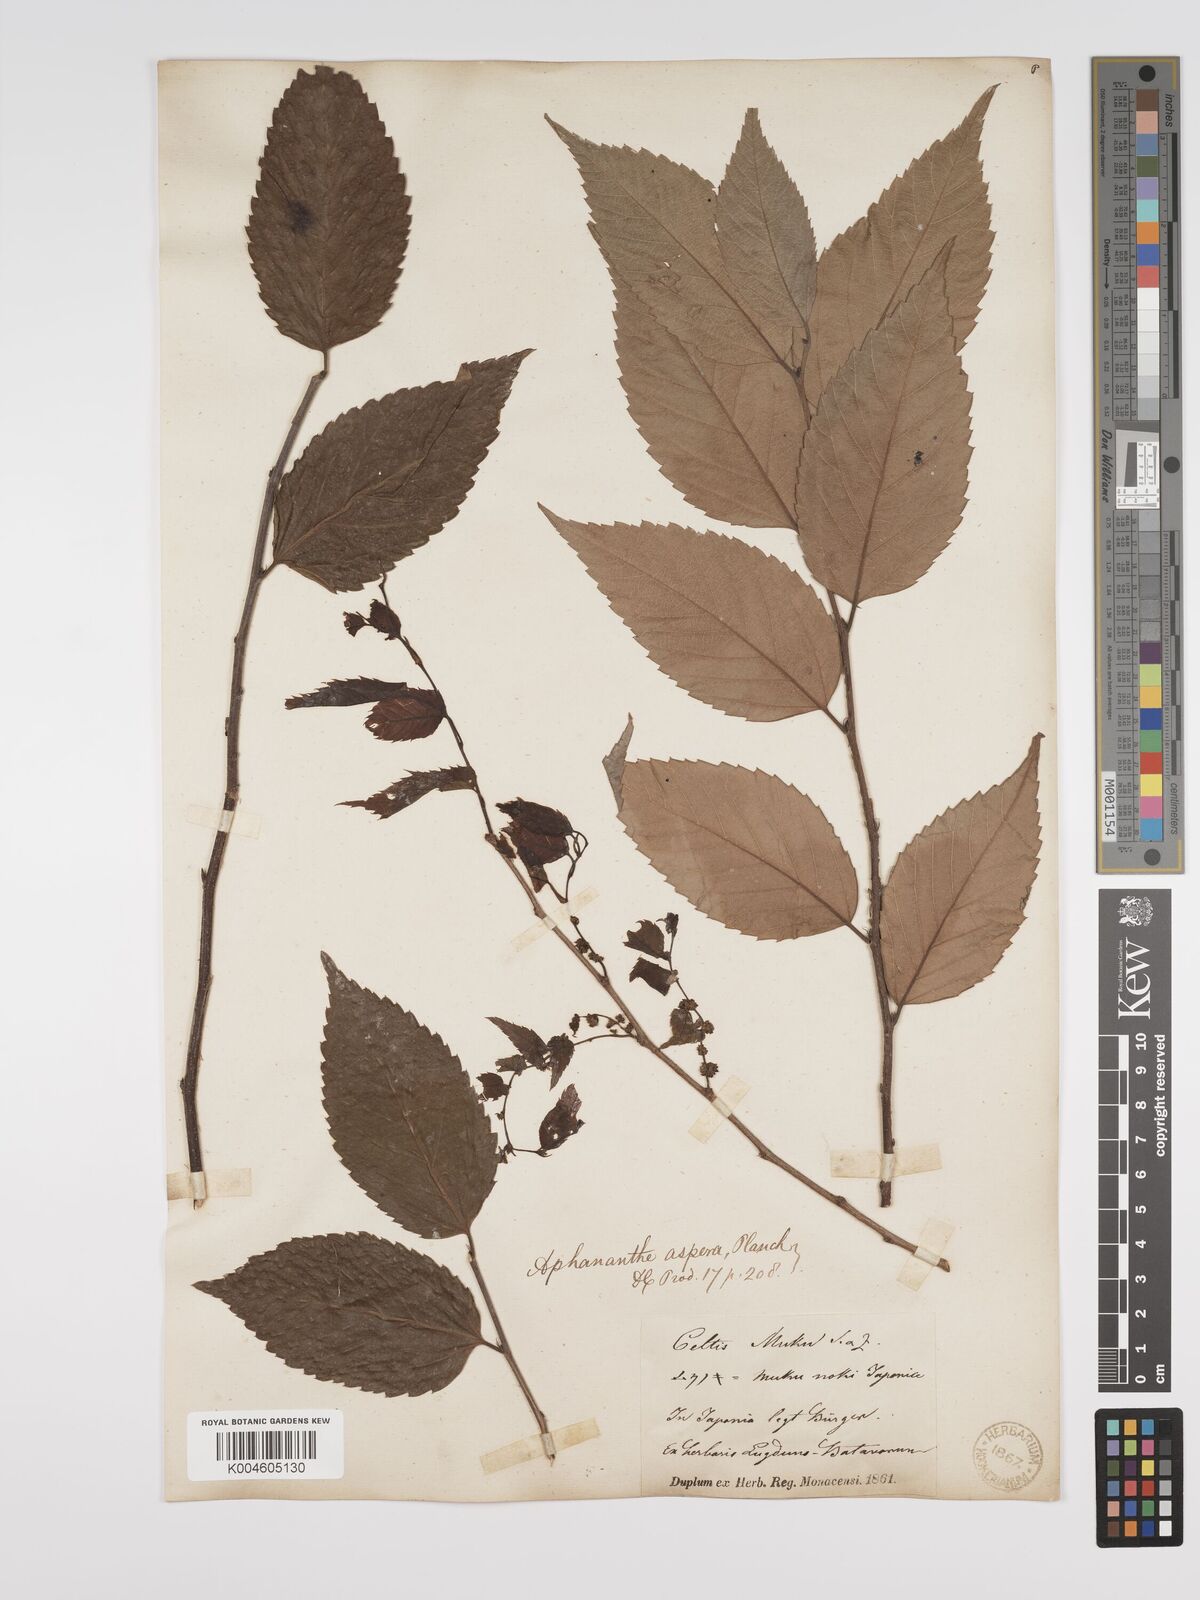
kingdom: Plantae
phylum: Tracheophyta
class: Magnoliopsida
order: Rosales
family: Cannabaceae
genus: Aphananthe
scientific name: Aphananthe aspera
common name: Mukutree
